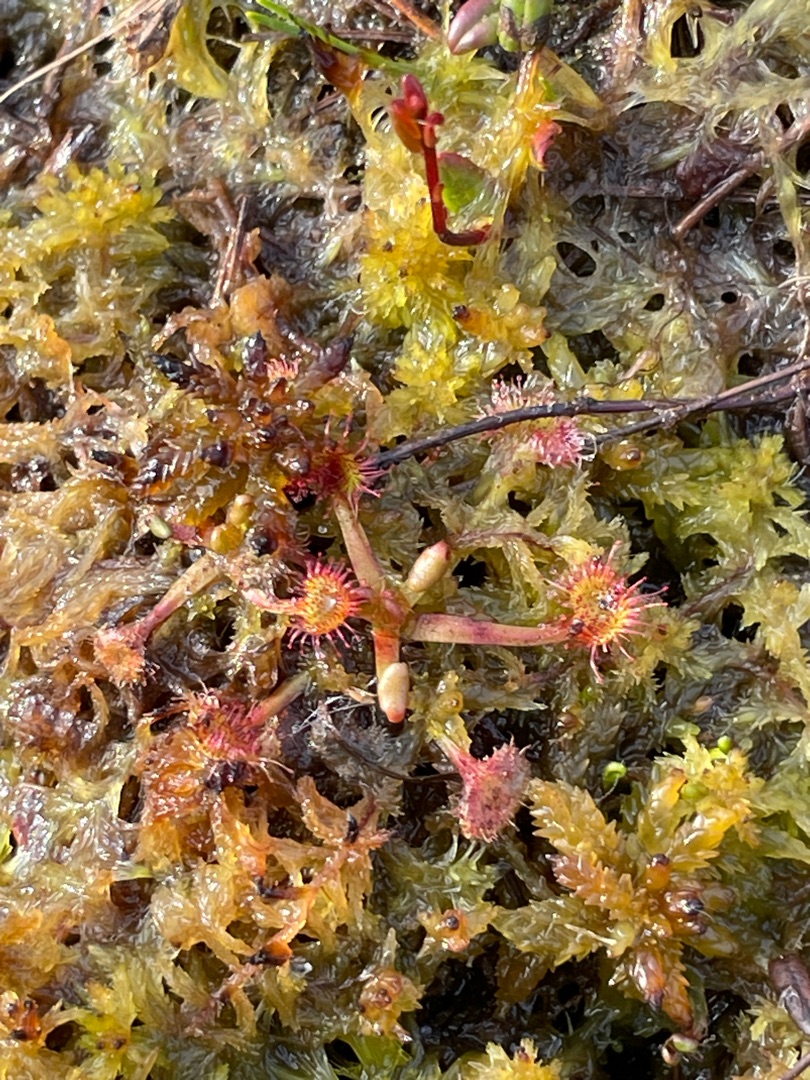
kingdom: Plantae
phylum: Tracheophyta
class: Magnoliopsida
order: Caryophyllales
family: Droseraceae
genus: Drosera
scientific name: Drosera rotundifolia
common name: Rundbladet soldug
